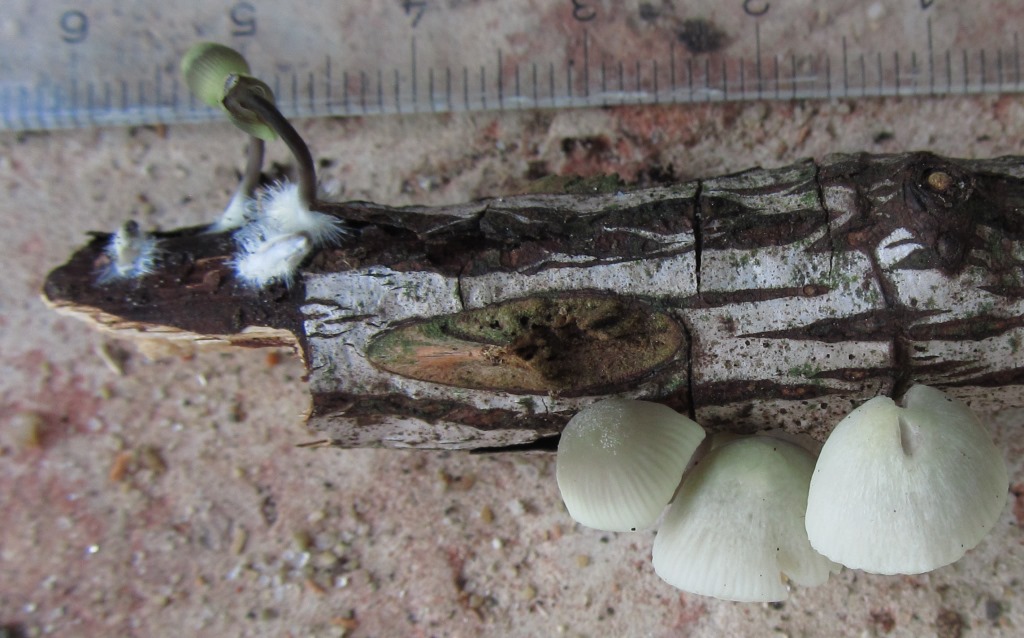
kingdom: Fungi
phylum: Basidiomycota
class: Agaricomycetes
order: Agaricales
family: Mycenaceae
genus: Mycena
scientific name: Mycena arcangeliana
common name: oliven-huesvamp
